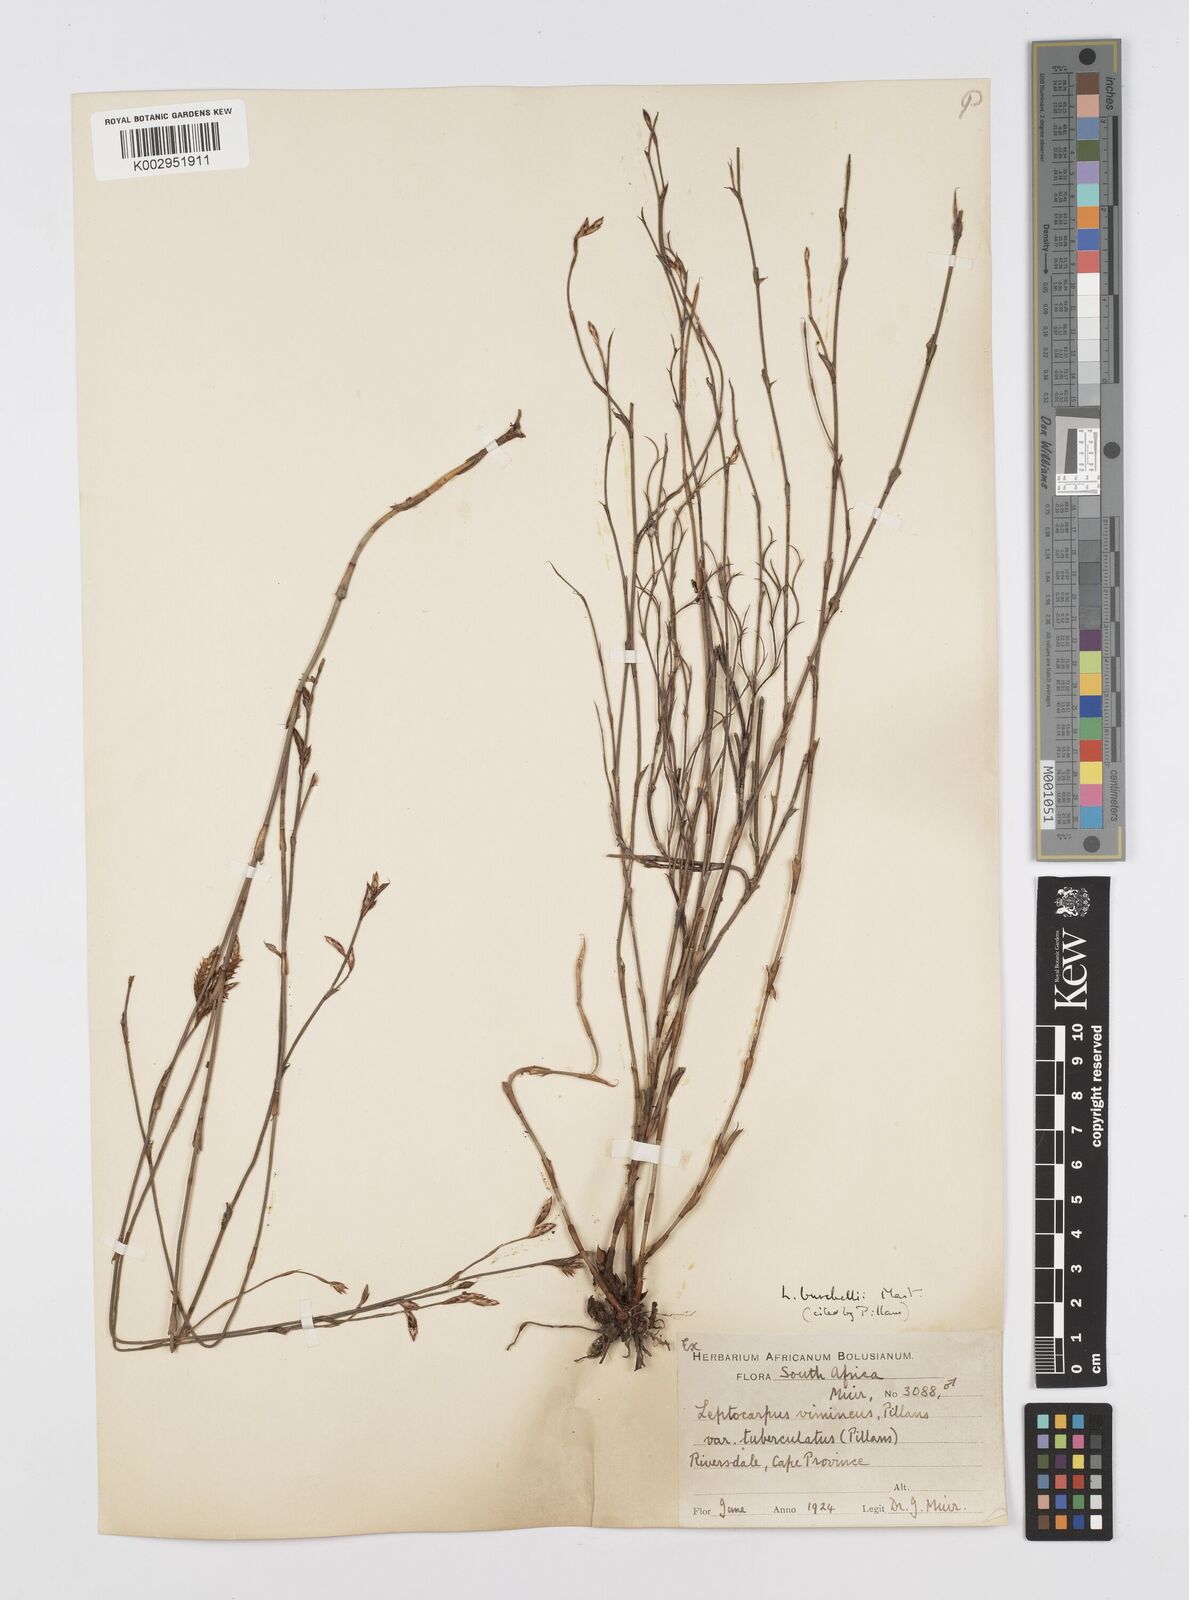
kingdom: Plantae
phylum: Tracheophyta
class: Liliopsida
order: Poales
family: Restionaceae
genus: Restio
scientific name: Restio burchellii
